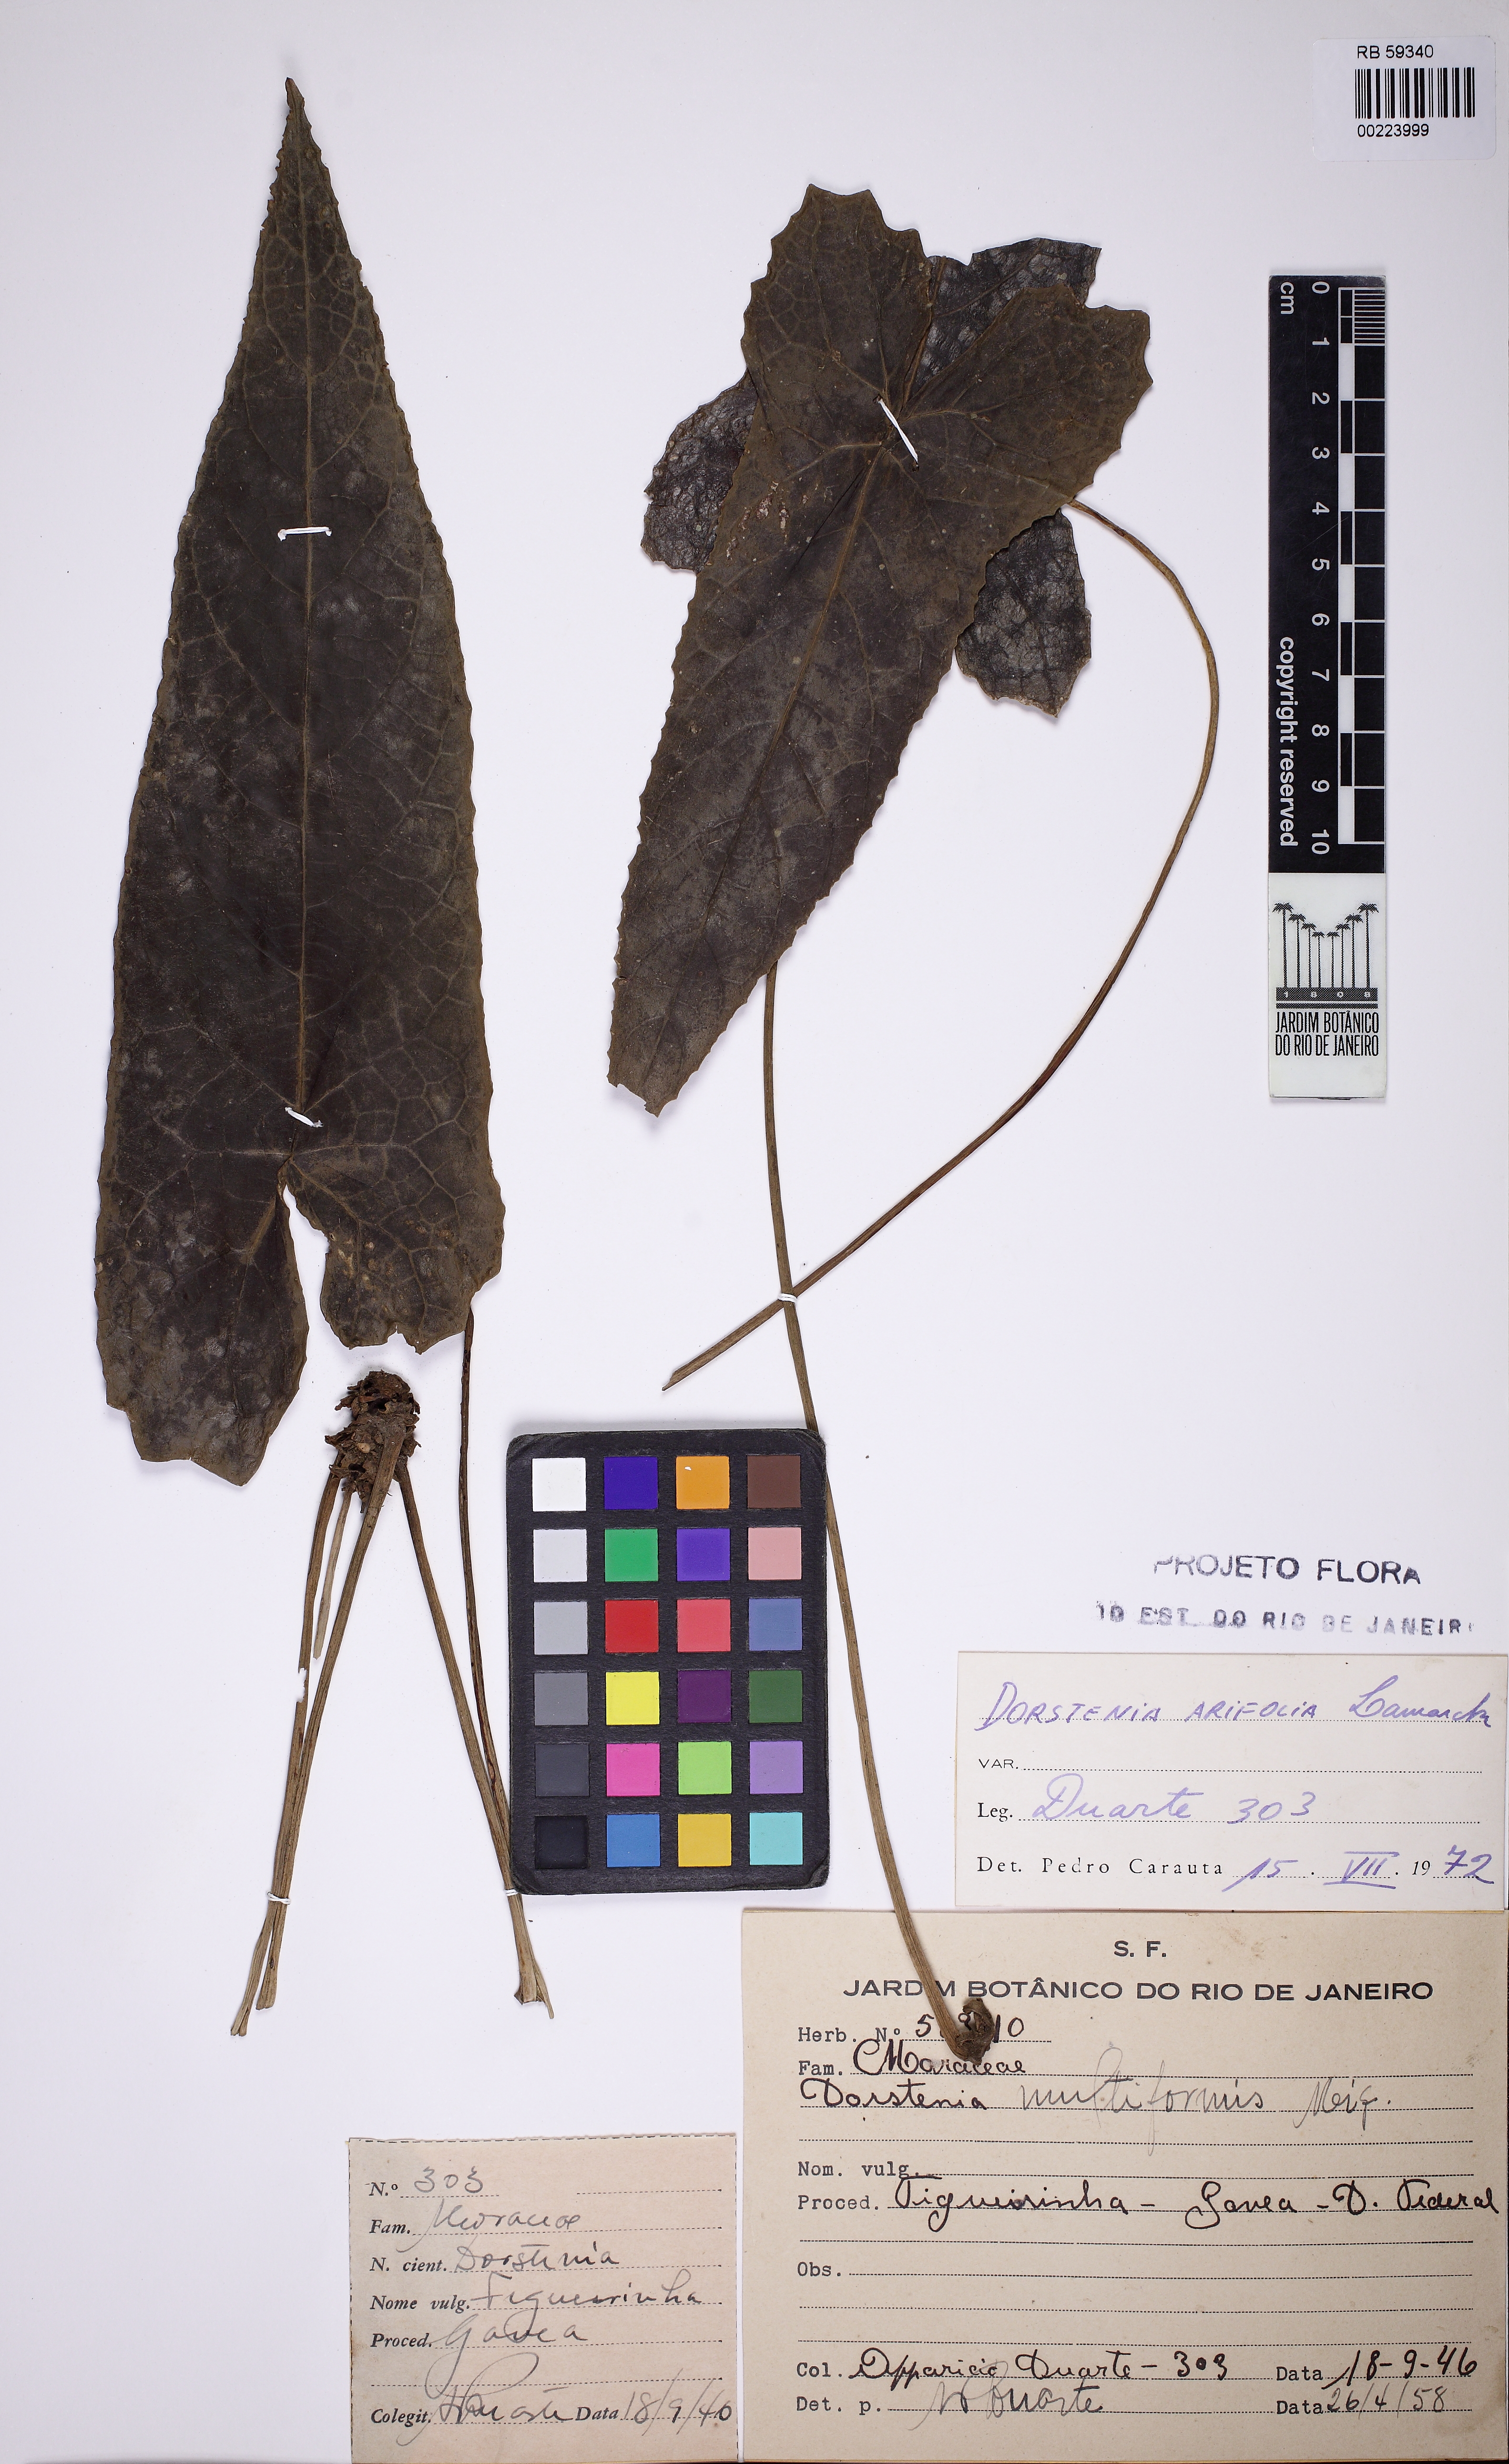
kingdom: Plantae
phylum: Tracheophyta
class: Magnoliopsida
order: Rosales
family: Moraceae
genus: Dorstenia
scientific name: Dorstenia arifolia
